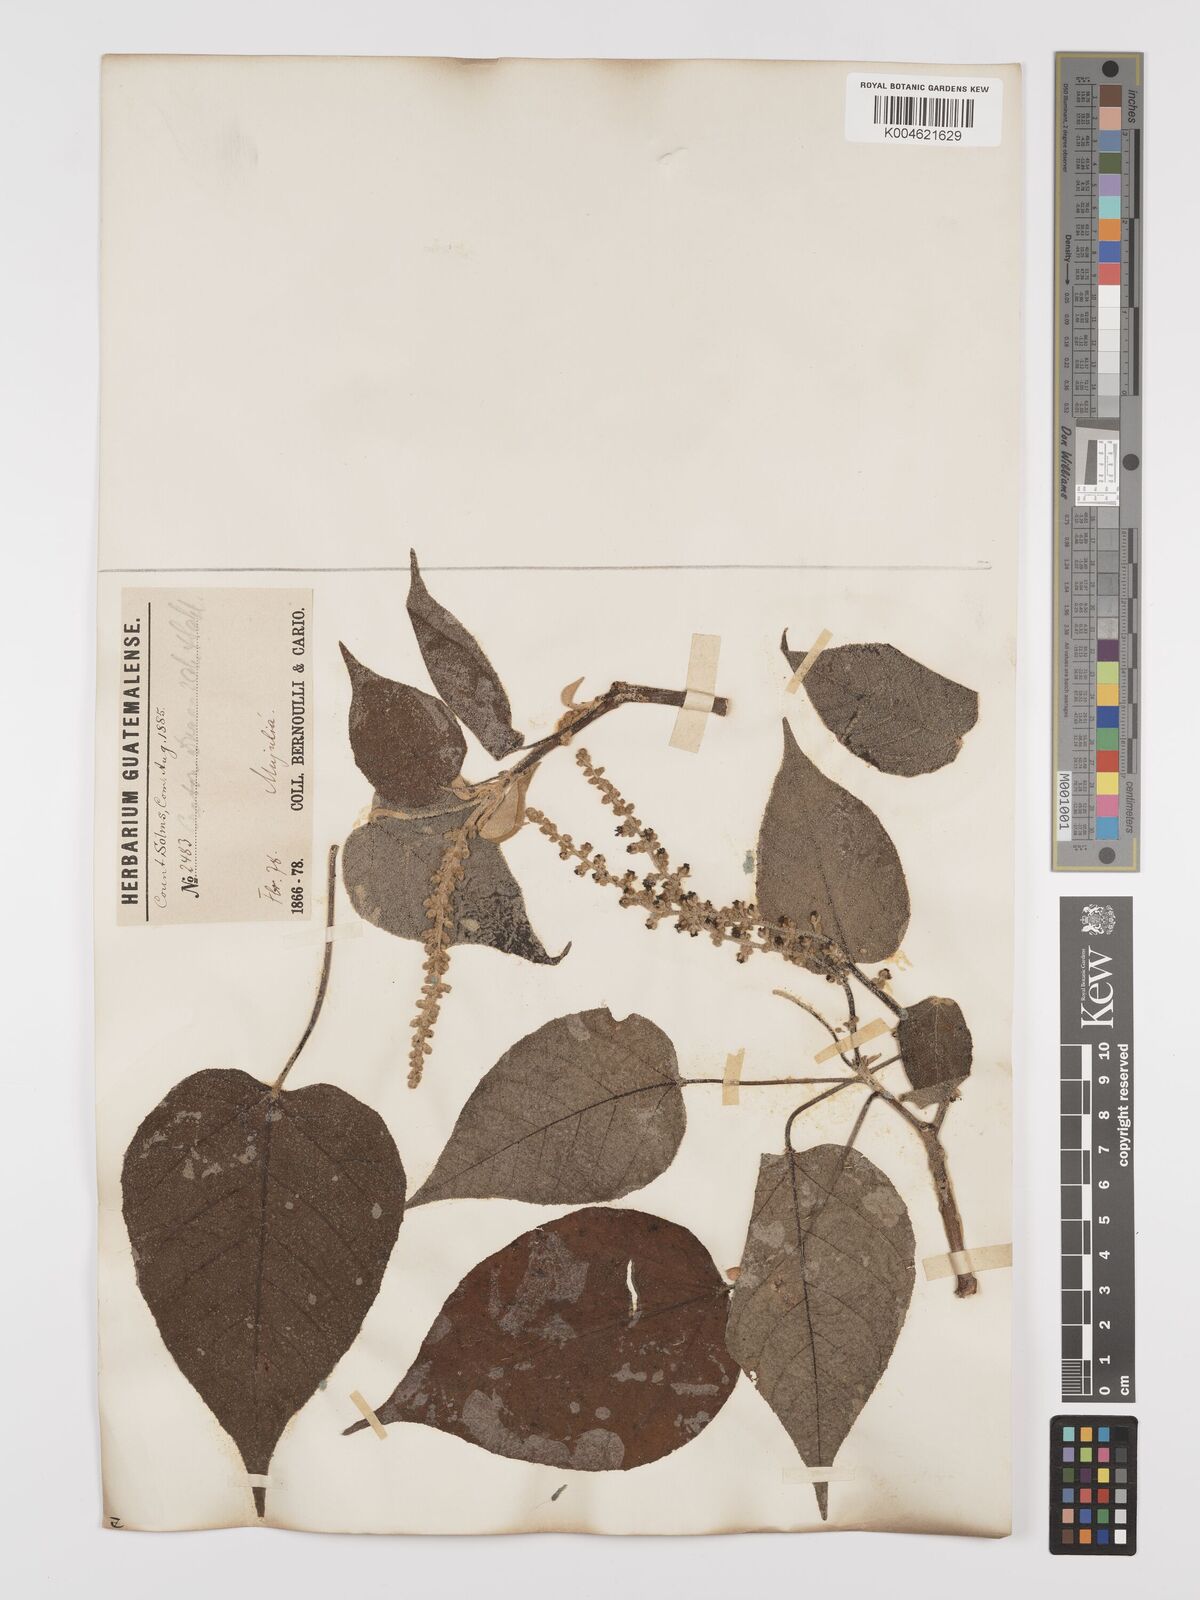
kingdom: Plantae
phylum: Tracheophyta
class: Magnoliopsida
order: Malpighiales
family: Euphorbiaceae
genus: Croton
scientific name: Croton draco
